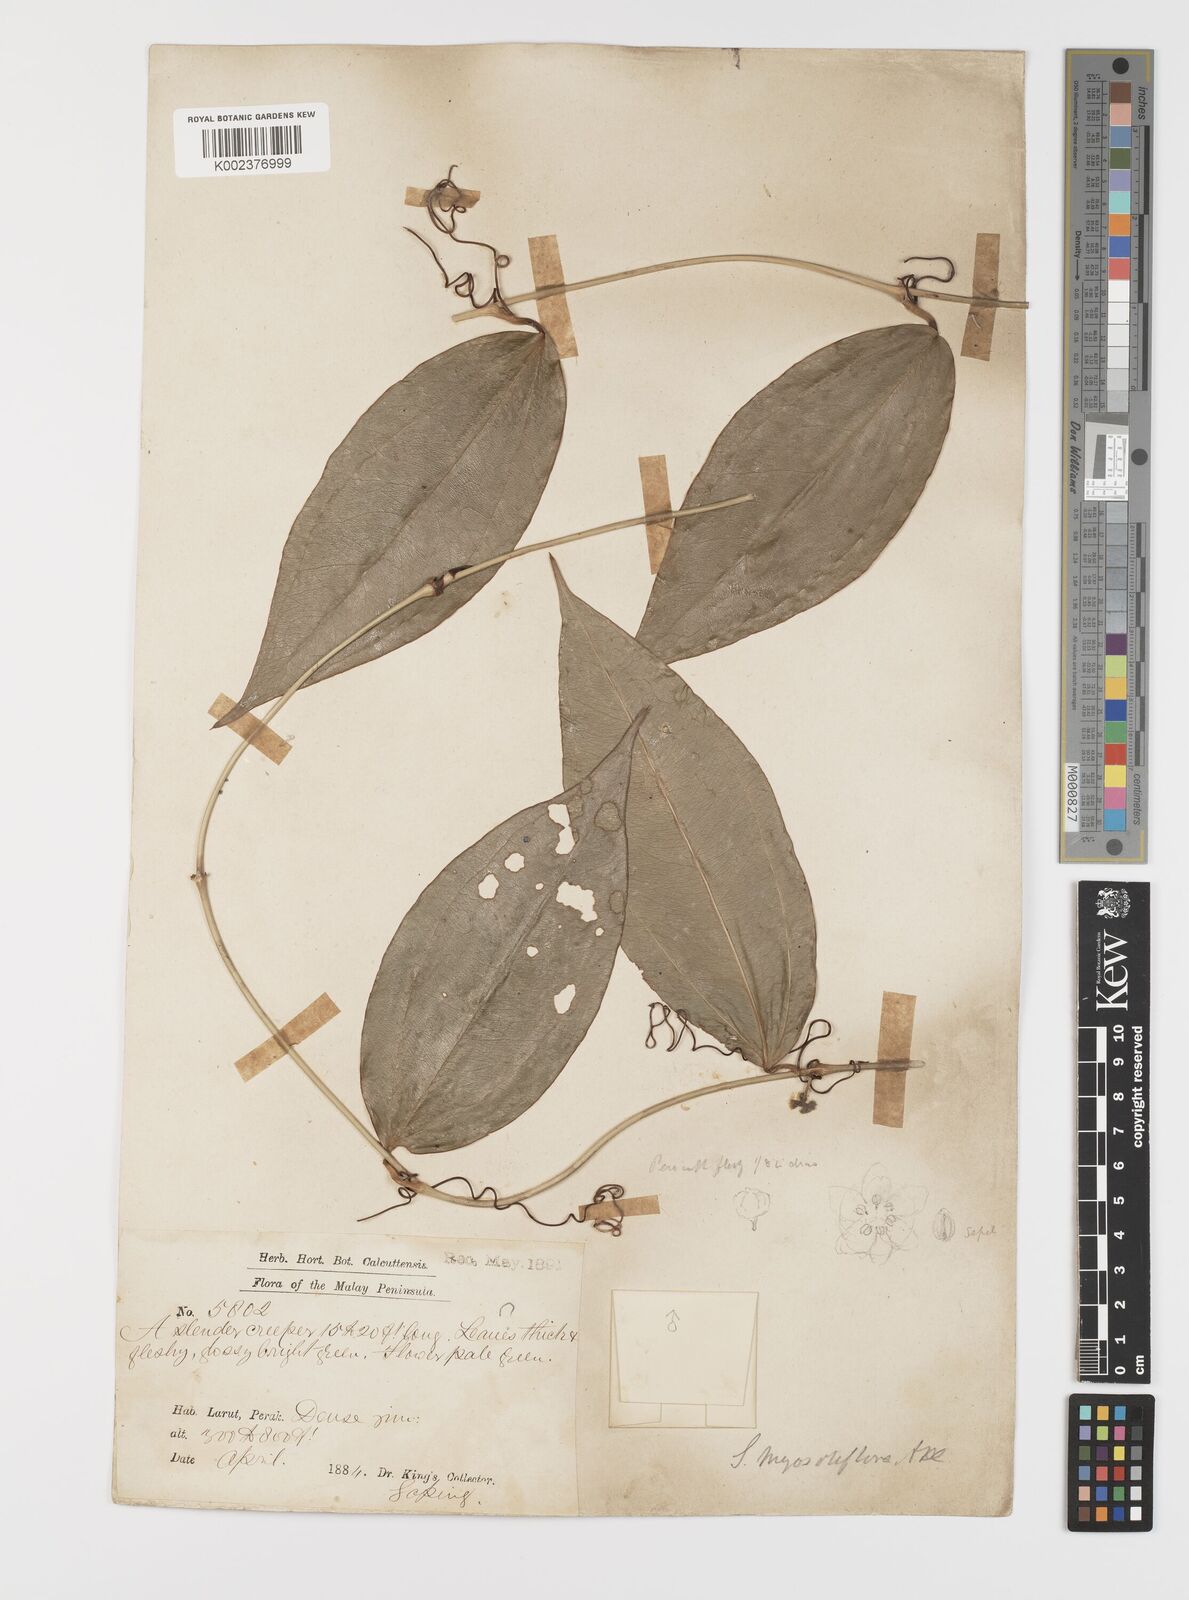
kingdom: Plantae
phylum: Tracheophyta
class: Liliopsida
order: Liliales
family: Smilacaceae
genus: Smilax
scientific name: Smilax myosotiflora
